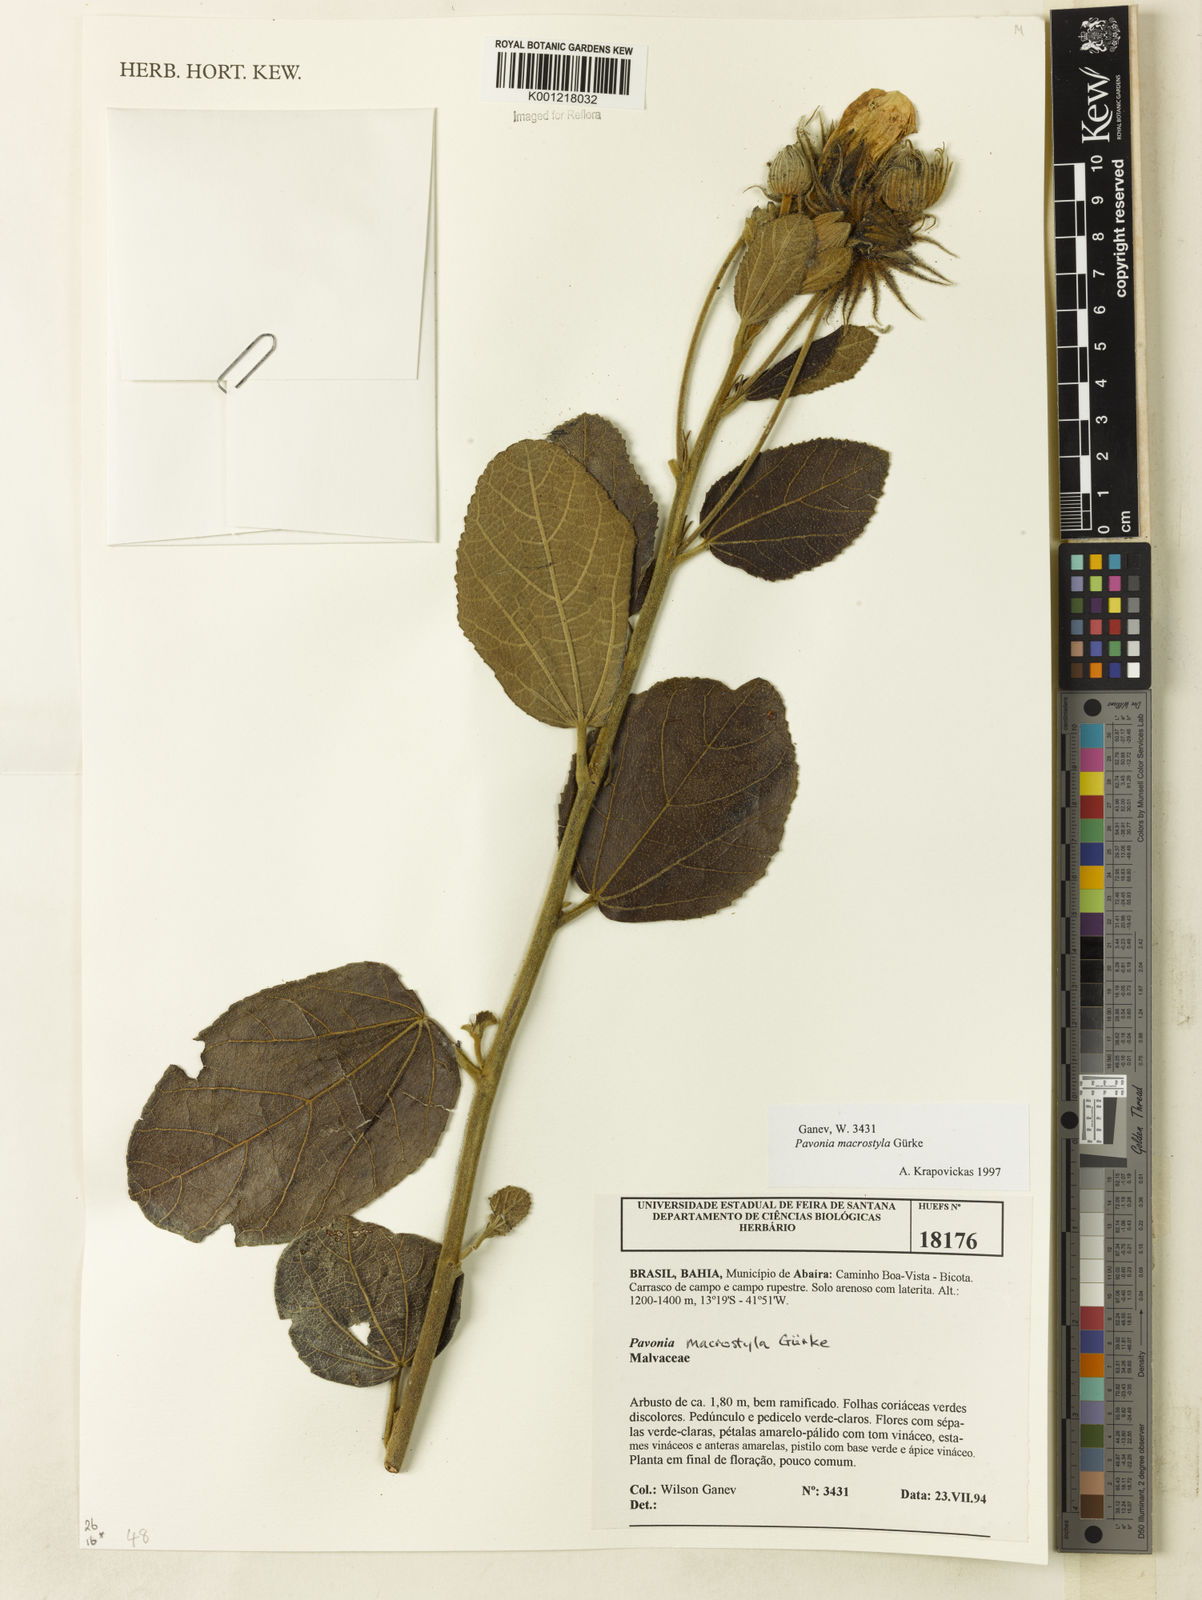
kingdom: Plantae
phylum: Tracheophyta
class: Magnoliopsida
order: Malvales
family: Malvaceae
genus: Pavonia
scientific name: Pavonia
